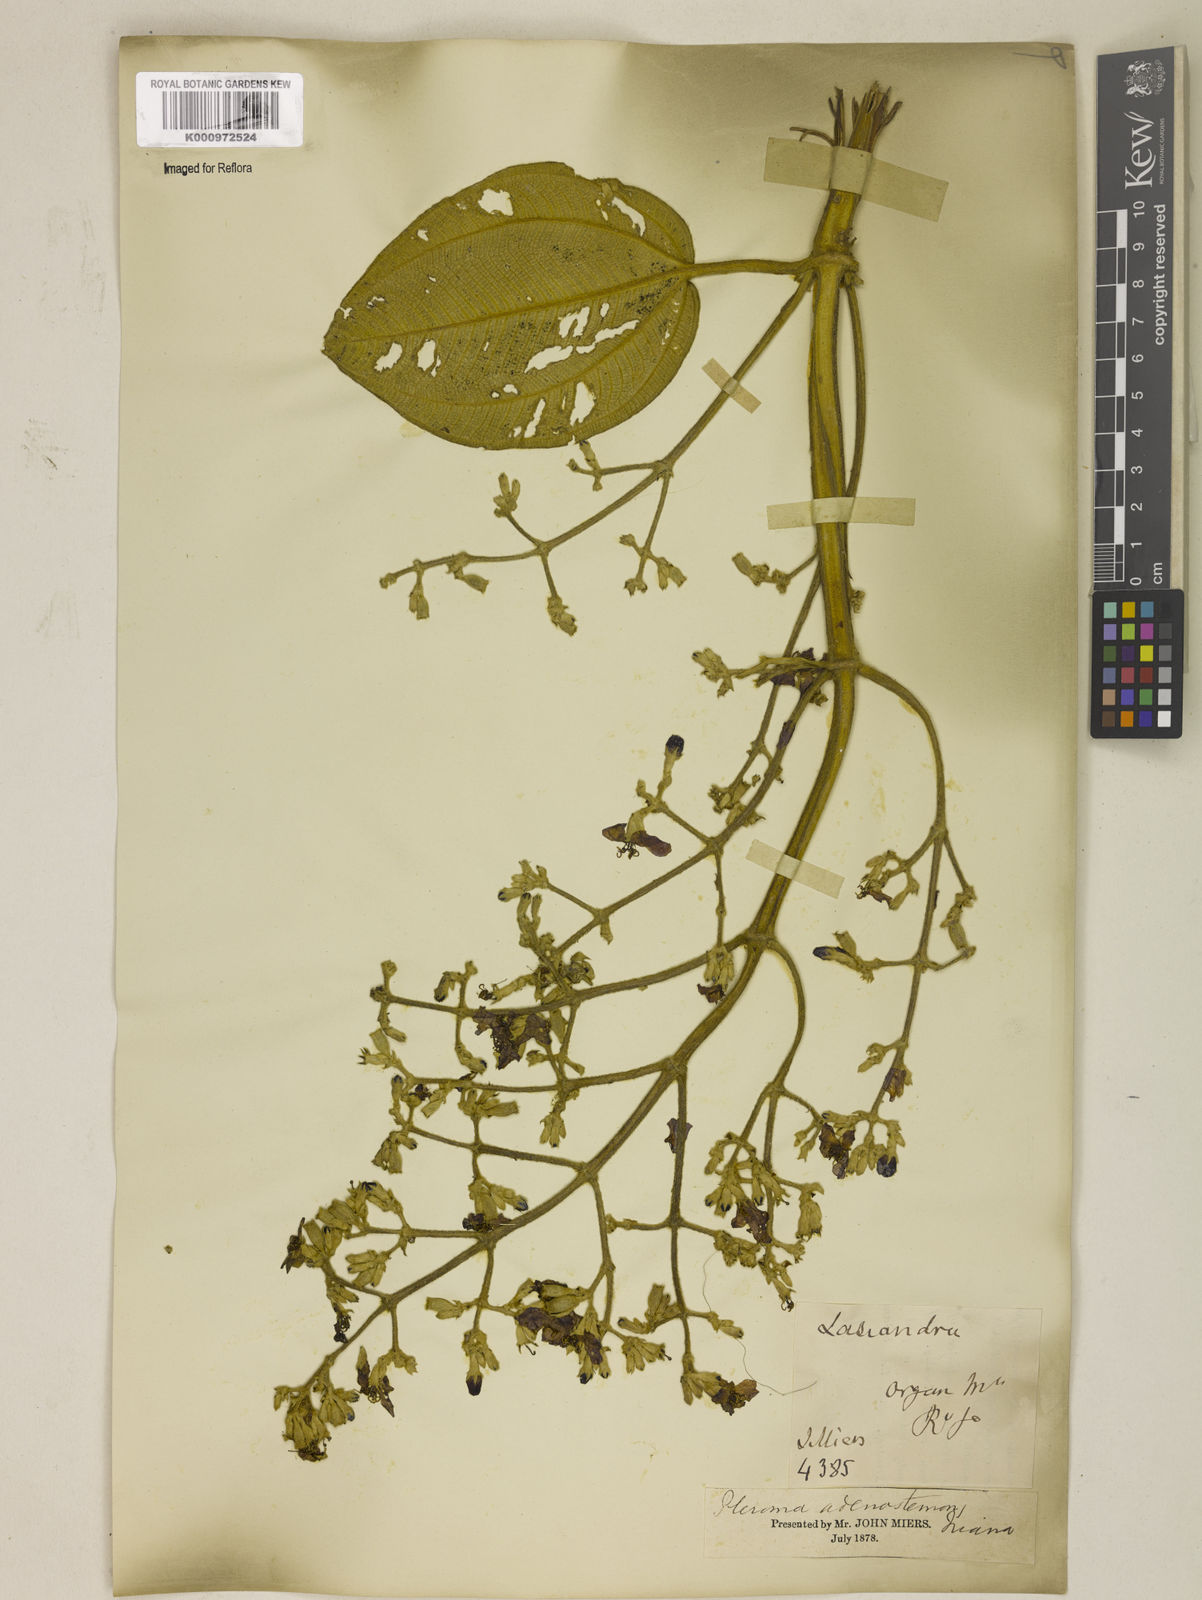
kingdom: Plantae
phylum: Tracheophyta
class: Magnoliopsida
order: Myrtales
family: Melastomataceae
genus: Pleroma
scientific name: Pleroma heteromallum
